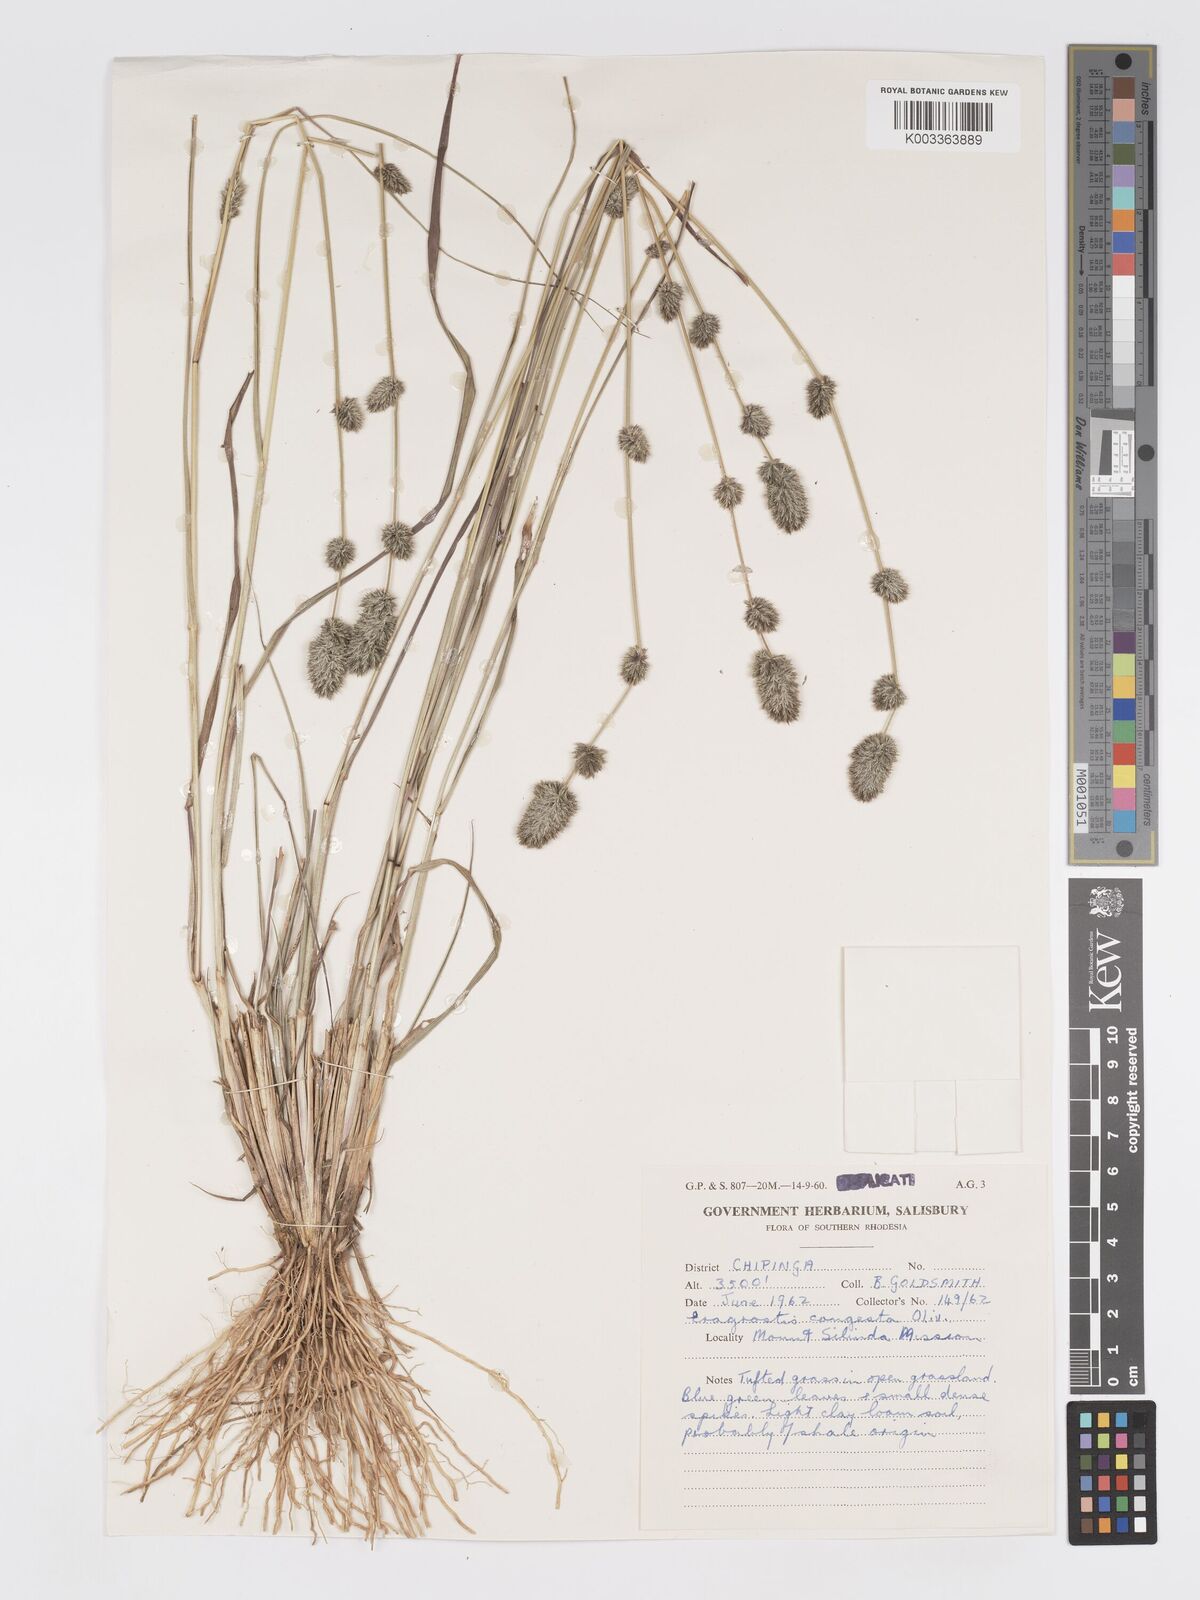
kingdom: Plantae
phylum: Tracheophyta
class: Liliopsida
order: Poales
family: Poaceae
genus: Eragrostis
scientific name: Eragrostis congesta
